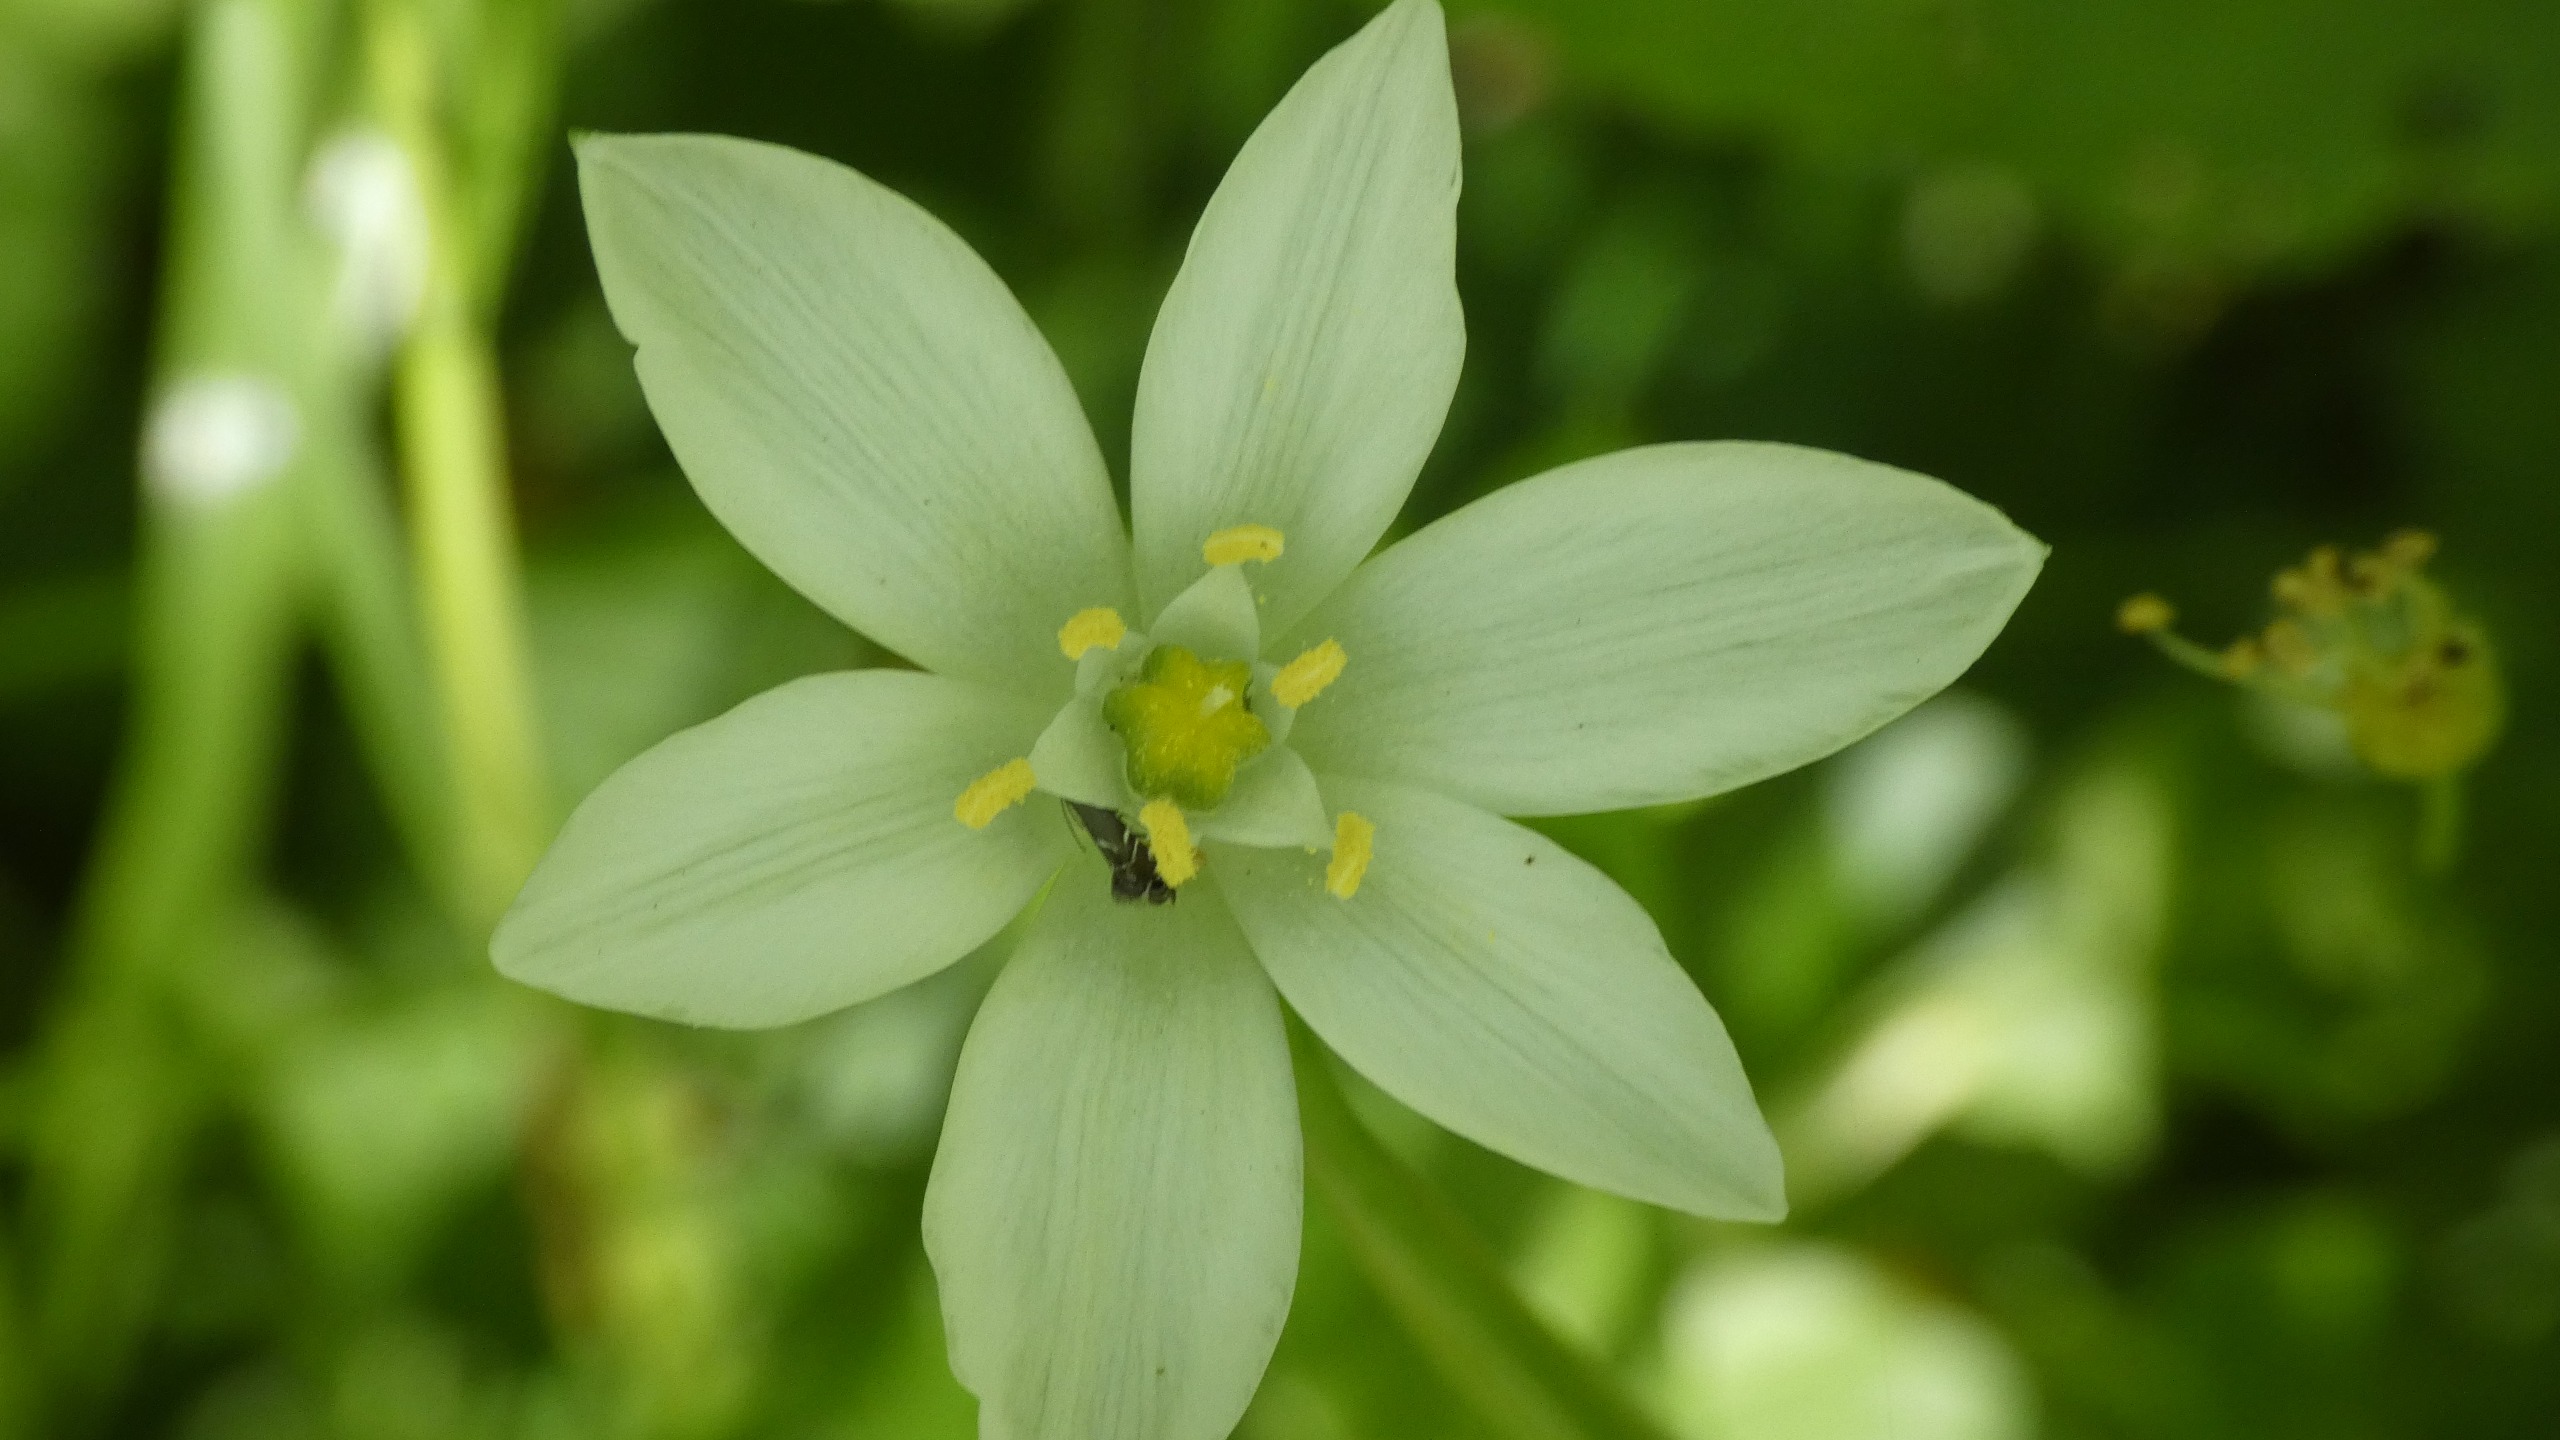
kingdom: Plantae
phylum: Tracheophyta
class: Liliopsida
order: Asparagales
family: Asparagaceae
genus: Ornithogalum
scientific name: Ornithogalum umbellatum
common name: Kost-fuglemælk
